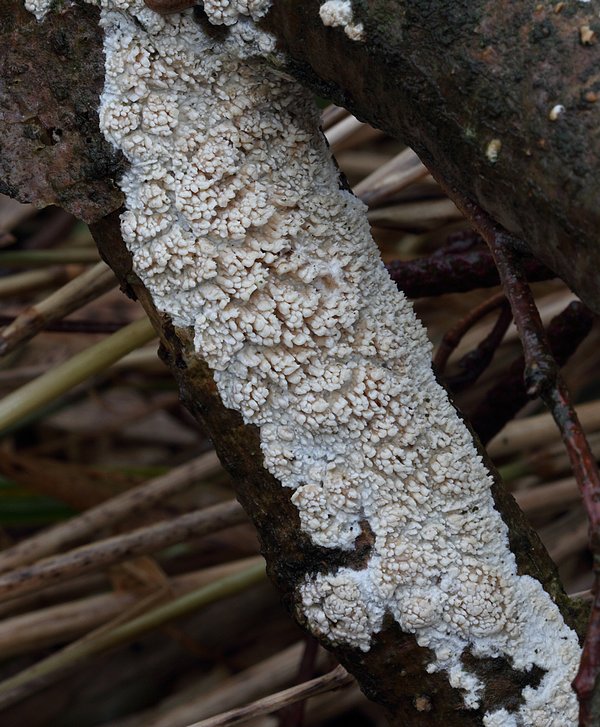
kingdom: Fungi
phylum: Basidiomycota
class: Agaricomycetes
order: Hymenochaetales
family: Schizoporaceae
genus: Xylodon
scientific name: Xylodon radula
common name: grovtandet kalkskind
